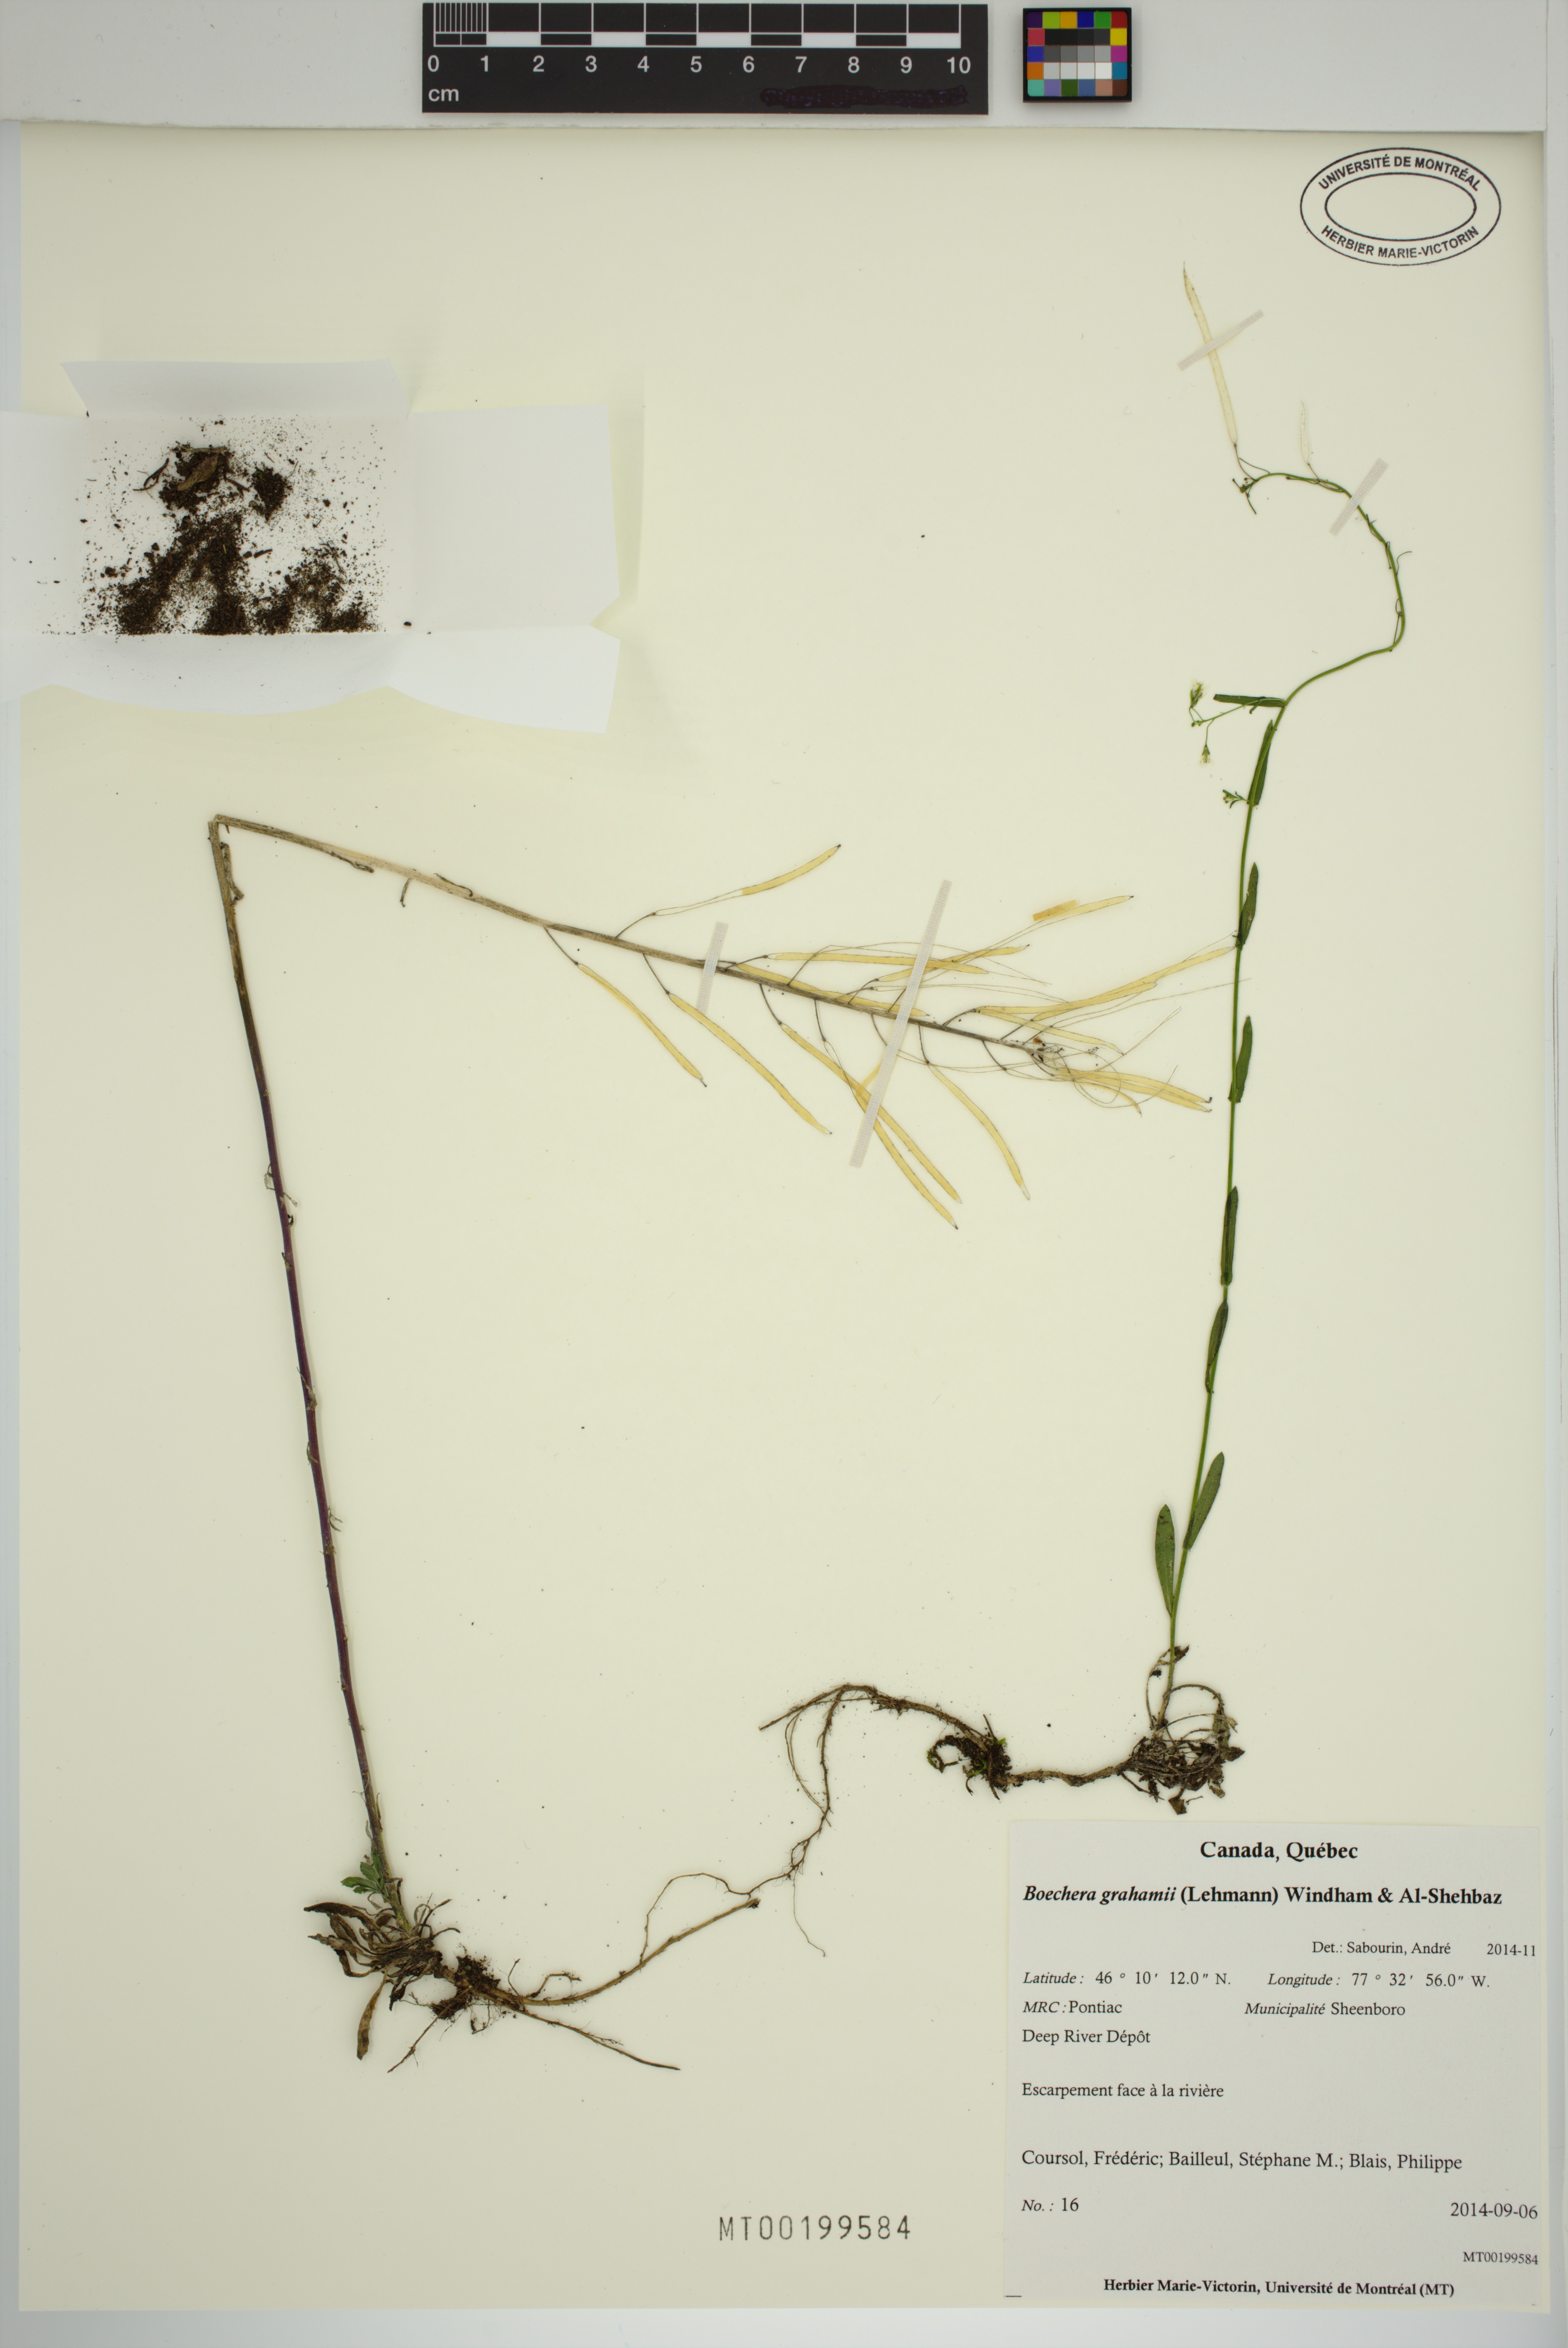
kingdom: Plantae
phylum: Tracheophyta
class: Magnoliopsida
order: Brassicales
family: Brassicaceae
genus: Boechera
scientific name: Boechera grahamii
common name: Graham's rockcress
